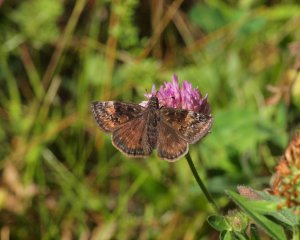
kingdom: Animalia
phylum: Arthropoda
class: Insecta
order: Lepidoptera
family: Hesperiidae
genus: Gesta
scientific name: Gesta
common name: Wild Indigo Duskywing
